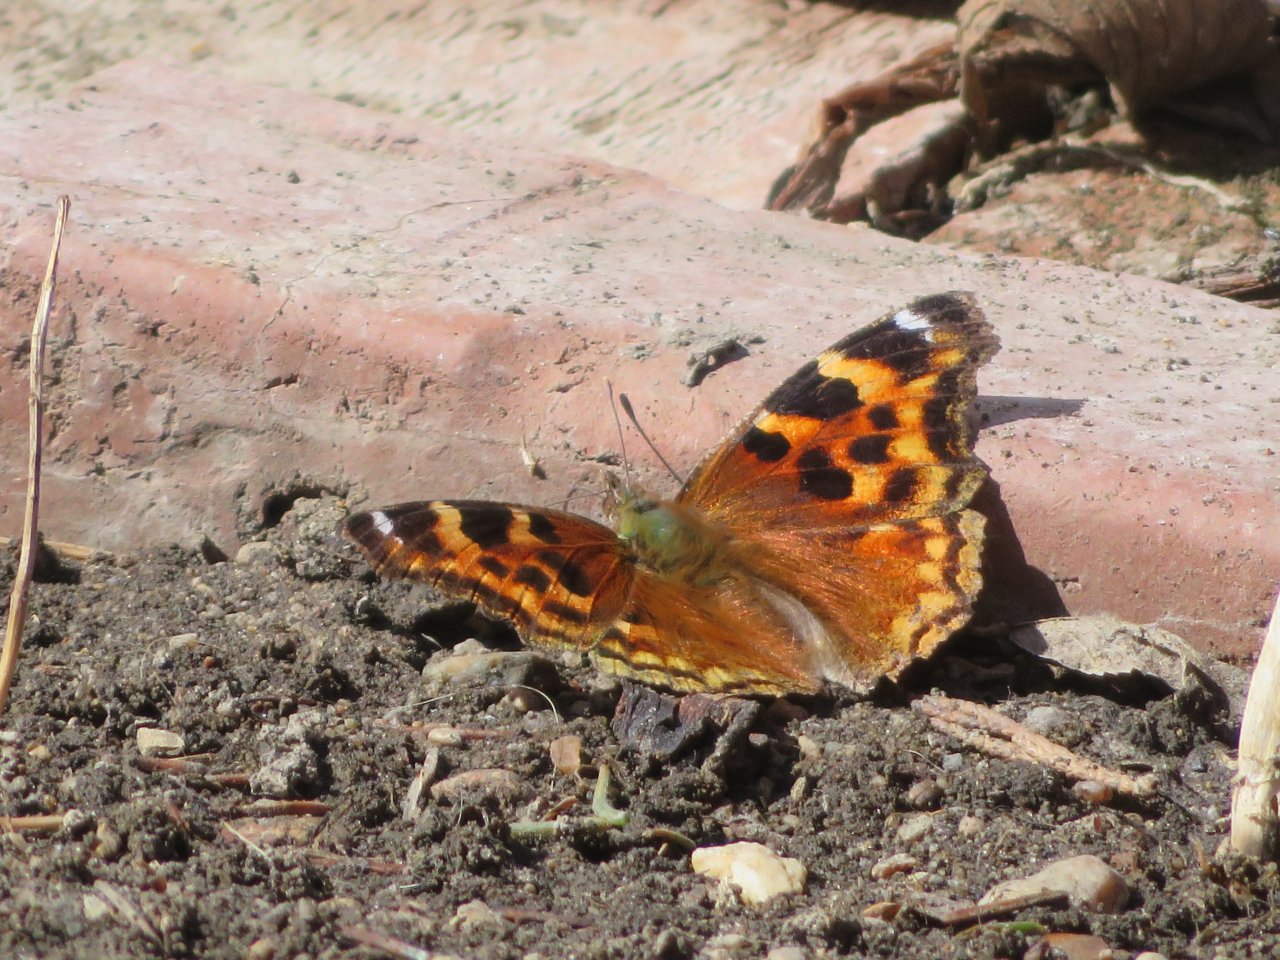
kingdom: Animalia
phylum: Arthropoda
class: Insecta
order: Lepidoptera
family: Nymphalidae
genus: Polygonia
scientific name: Polygonia vaualbum
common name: Compton Tortoiseshell
